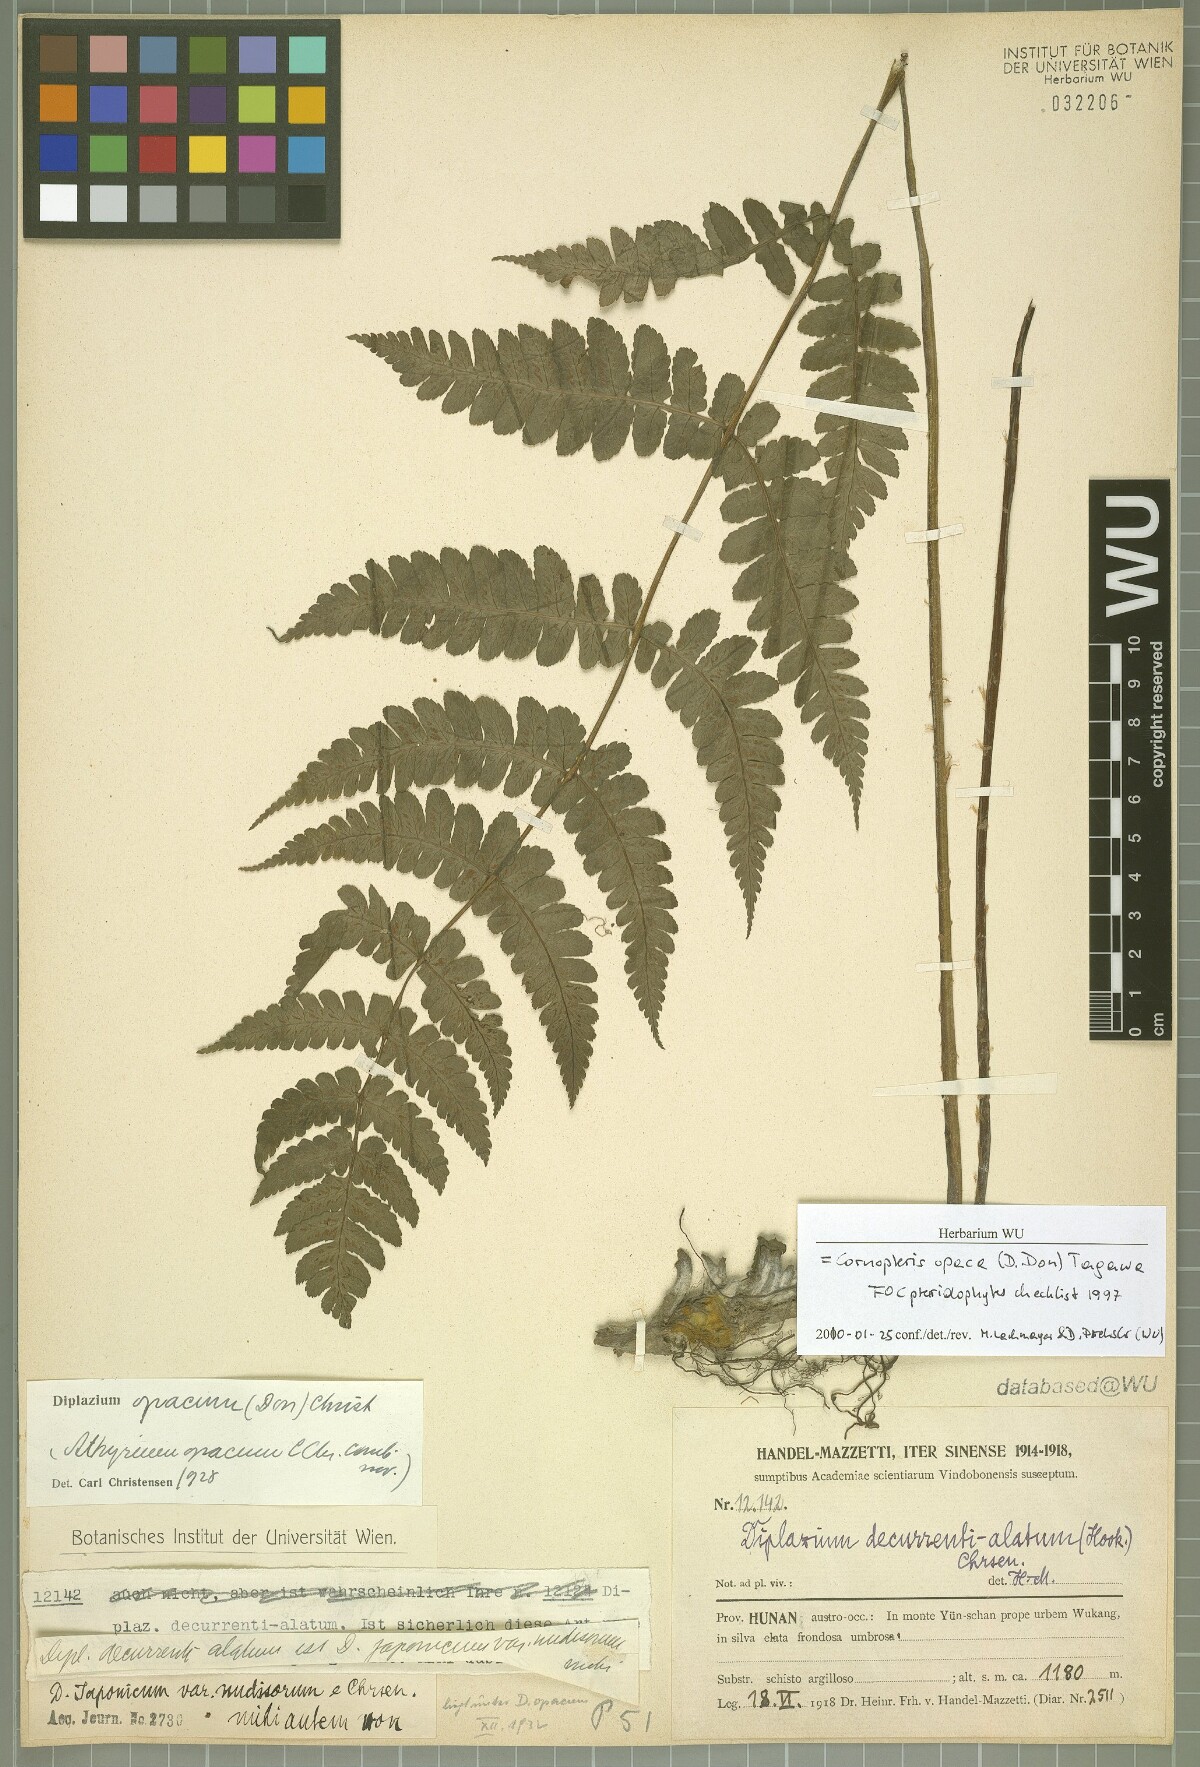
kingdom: Plantae
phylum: Tracheophyta
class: Polypodiopsida
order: Polypodiales
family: Athyriaceae
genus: Cornopteris
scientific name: Cornopteris opaca
